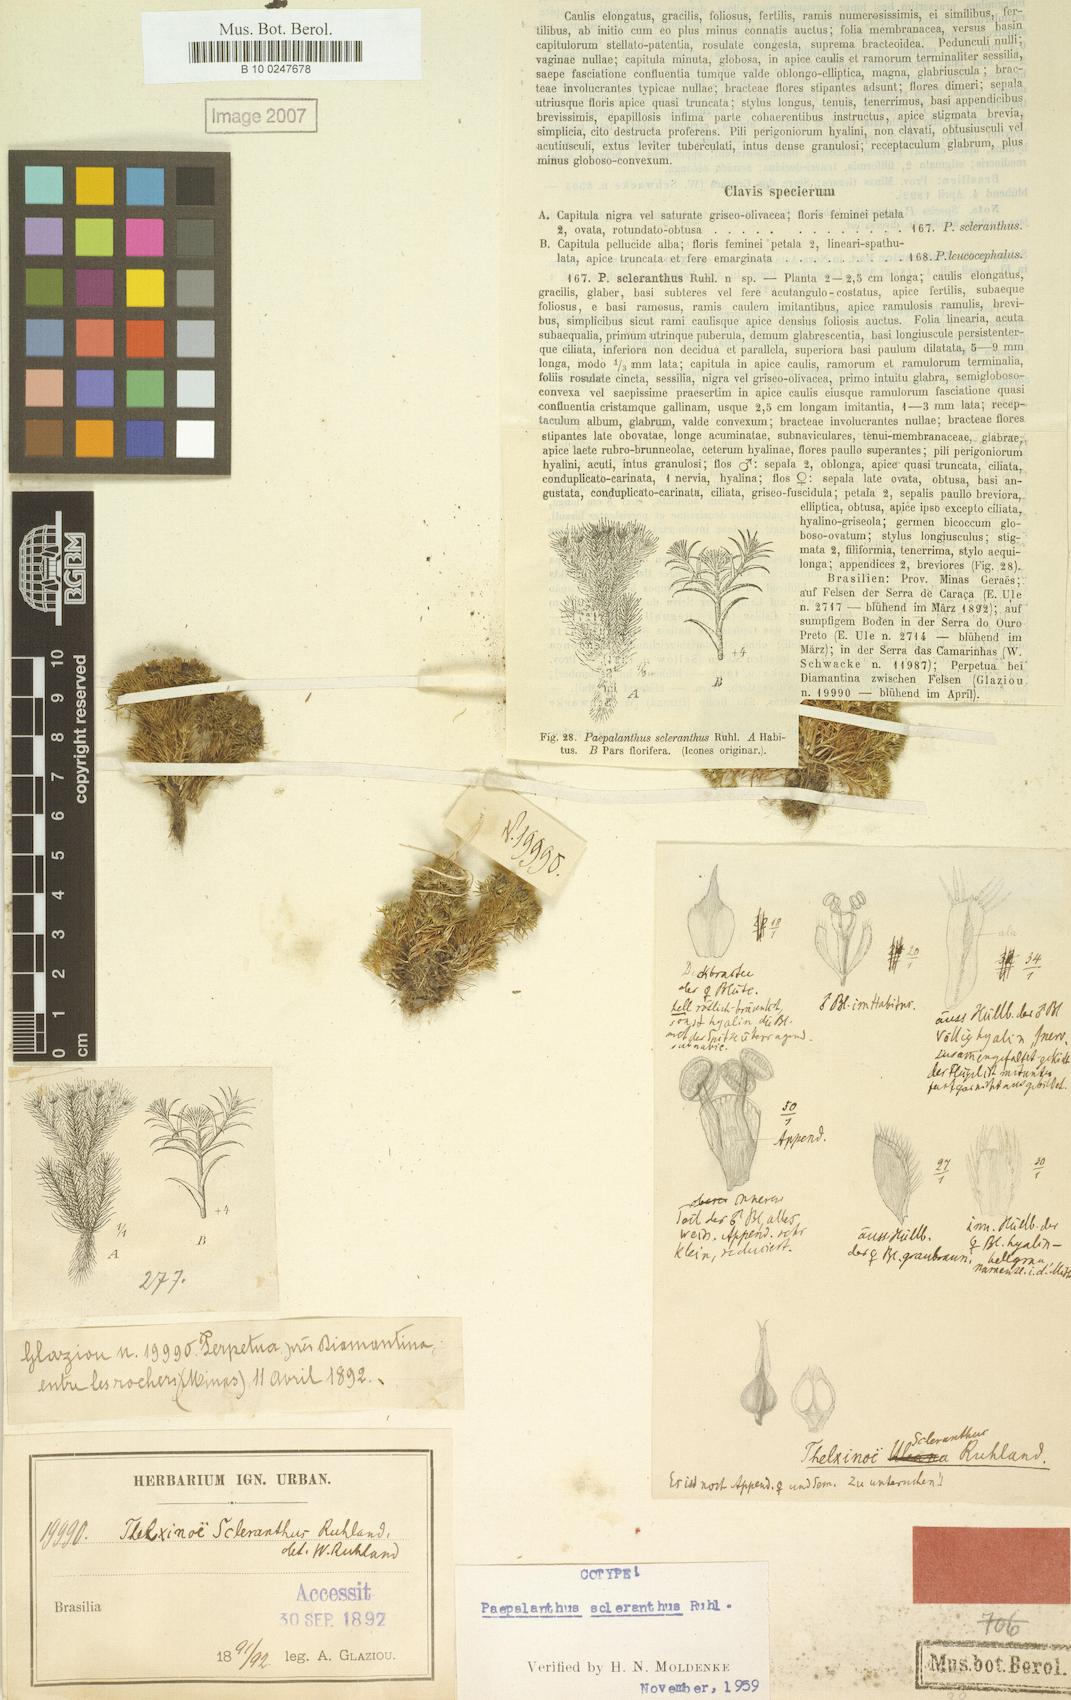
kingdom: Plantae
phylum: Tracheophyta
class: Liliopsida
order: Poales
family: Eriocaulaceae
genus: Paepalanthus
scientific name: Paepalanthus scleranthus
